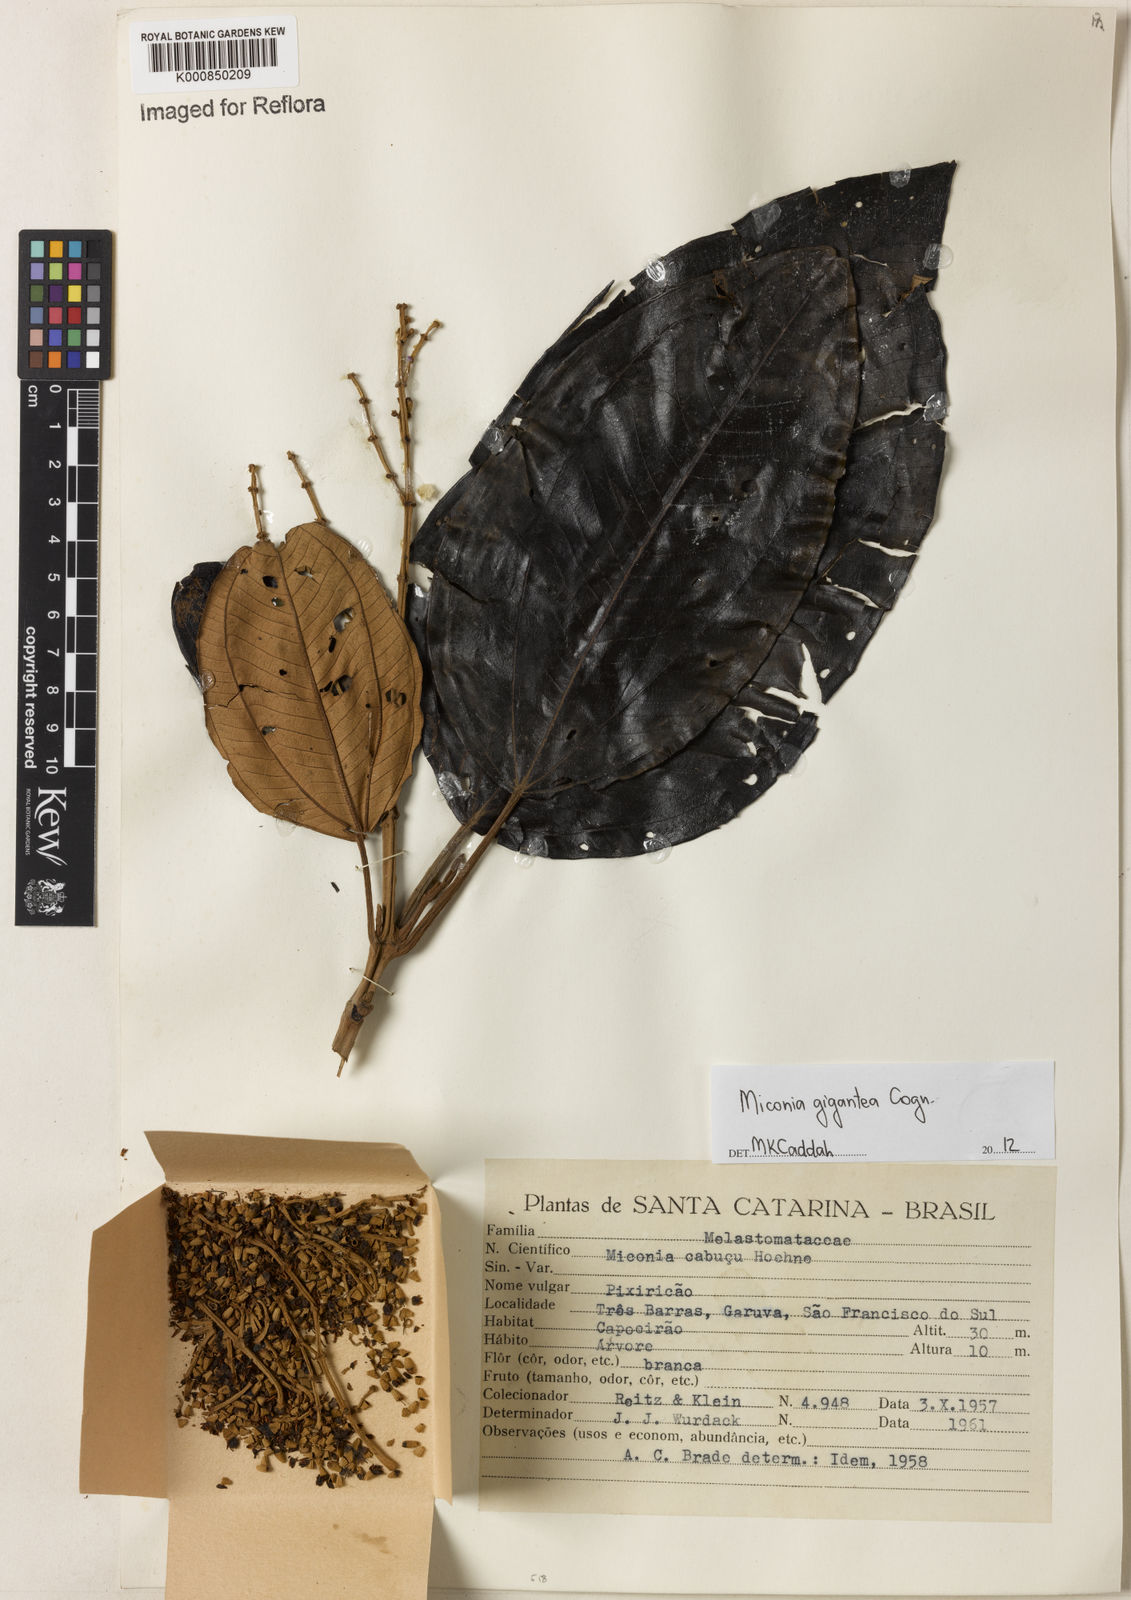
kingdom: Plantae
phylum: Tracheophyta
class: Magnoliopsida
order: Myrtales
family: Melastomataceae
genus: Miconia
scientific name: Miconia formosa
